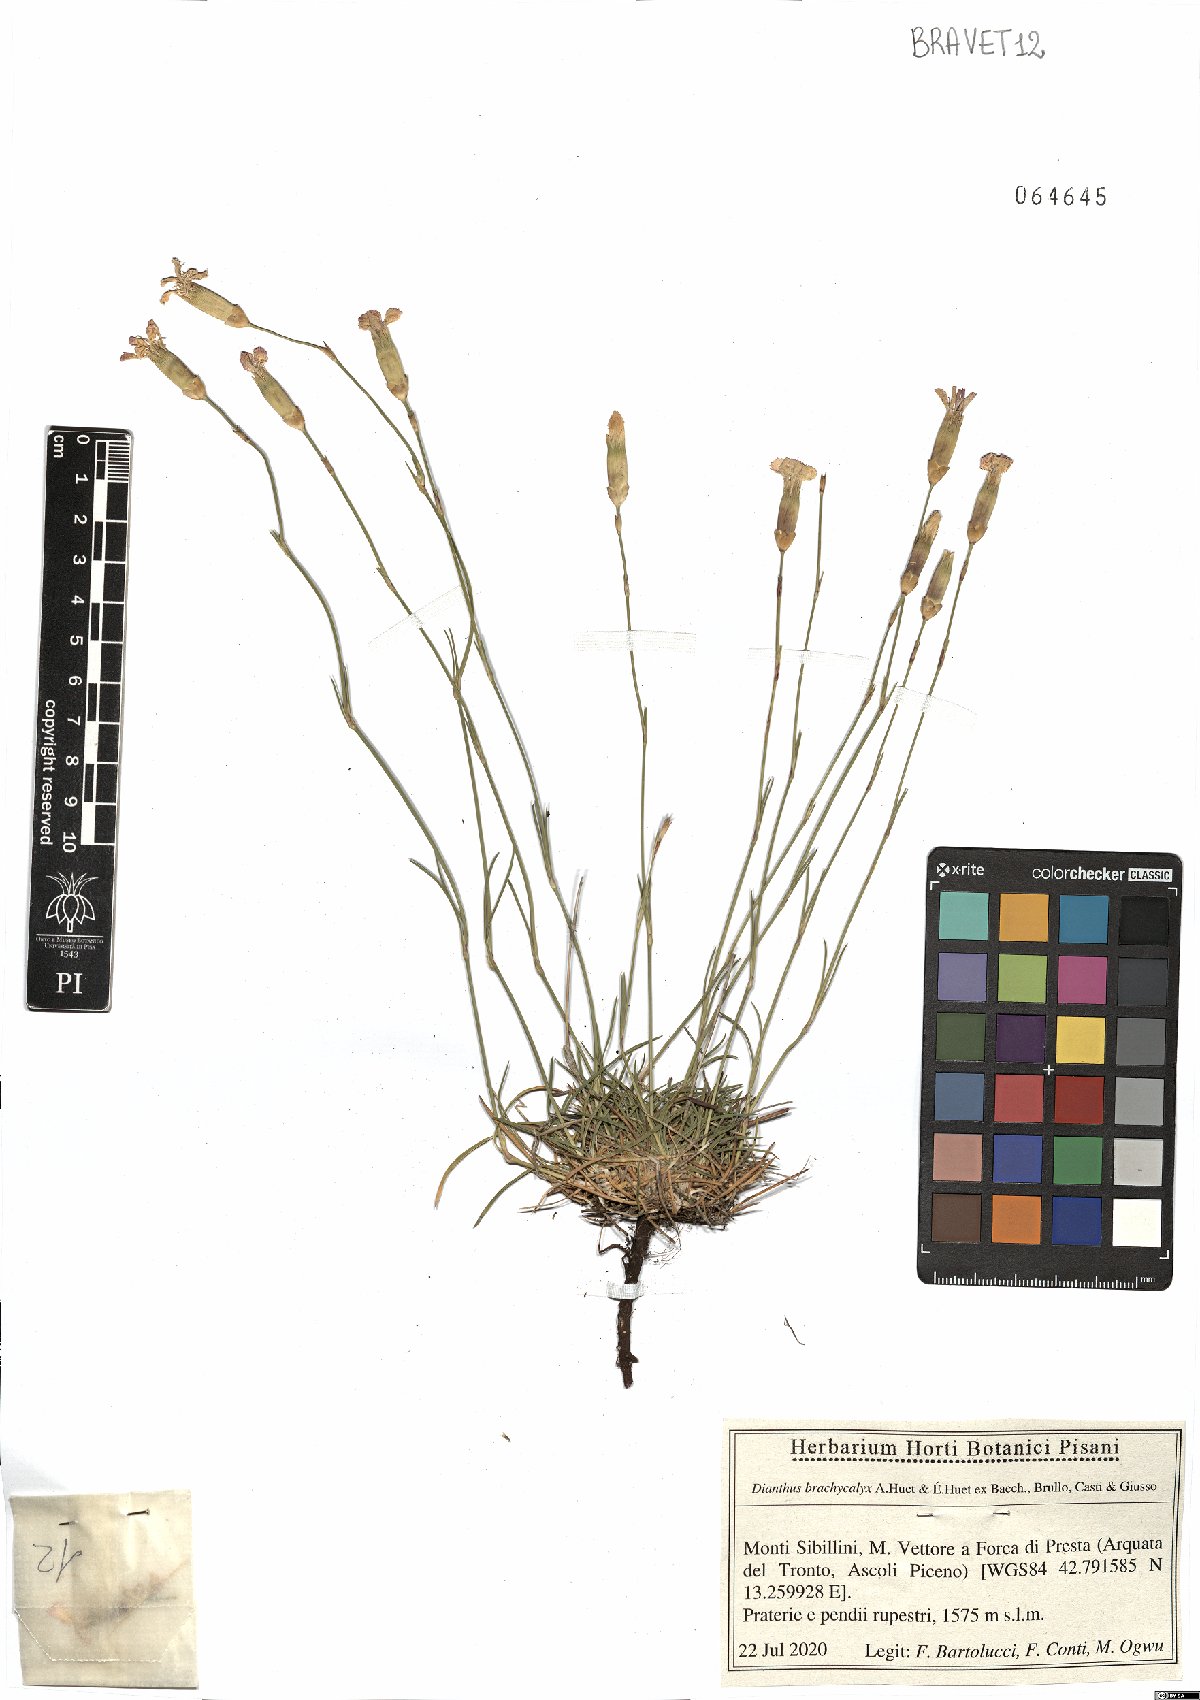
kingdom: Plantae
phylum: Tracheophyta
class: Magnoliopsida
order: Caryophyllales
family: Caryophyllaceae
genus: Dianthus
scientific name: Dianthus brachycalyx
